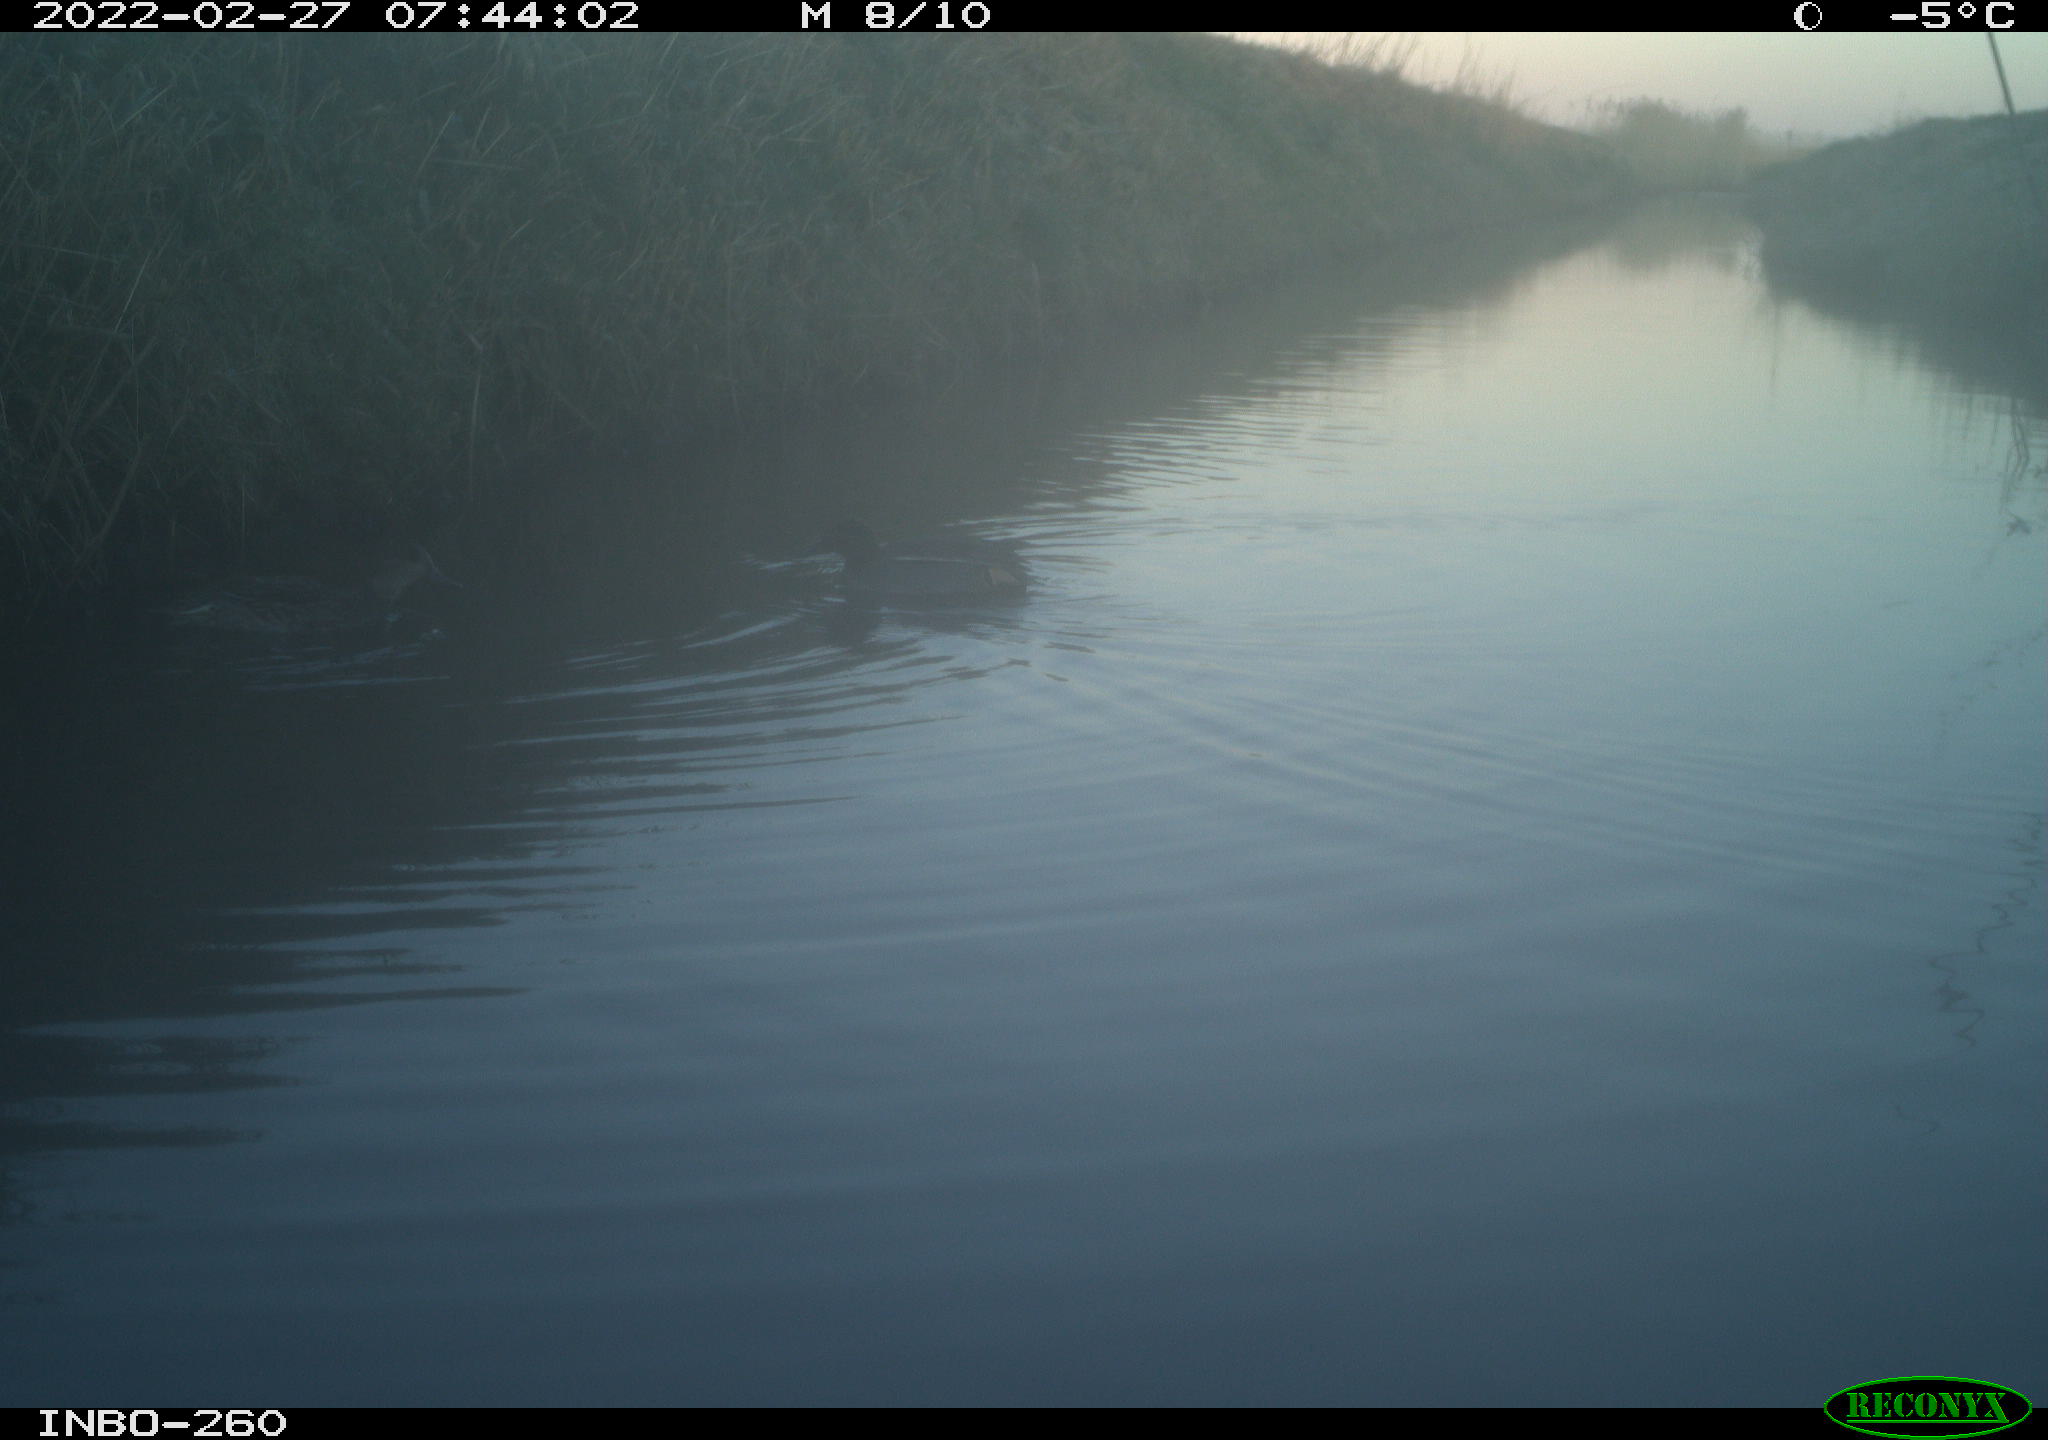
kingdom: Animalia
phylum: Chordata
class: Aves
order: Anseriformes
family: Anatidae
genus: Anas
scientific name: Anas platyrhynchos
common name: Mallard
